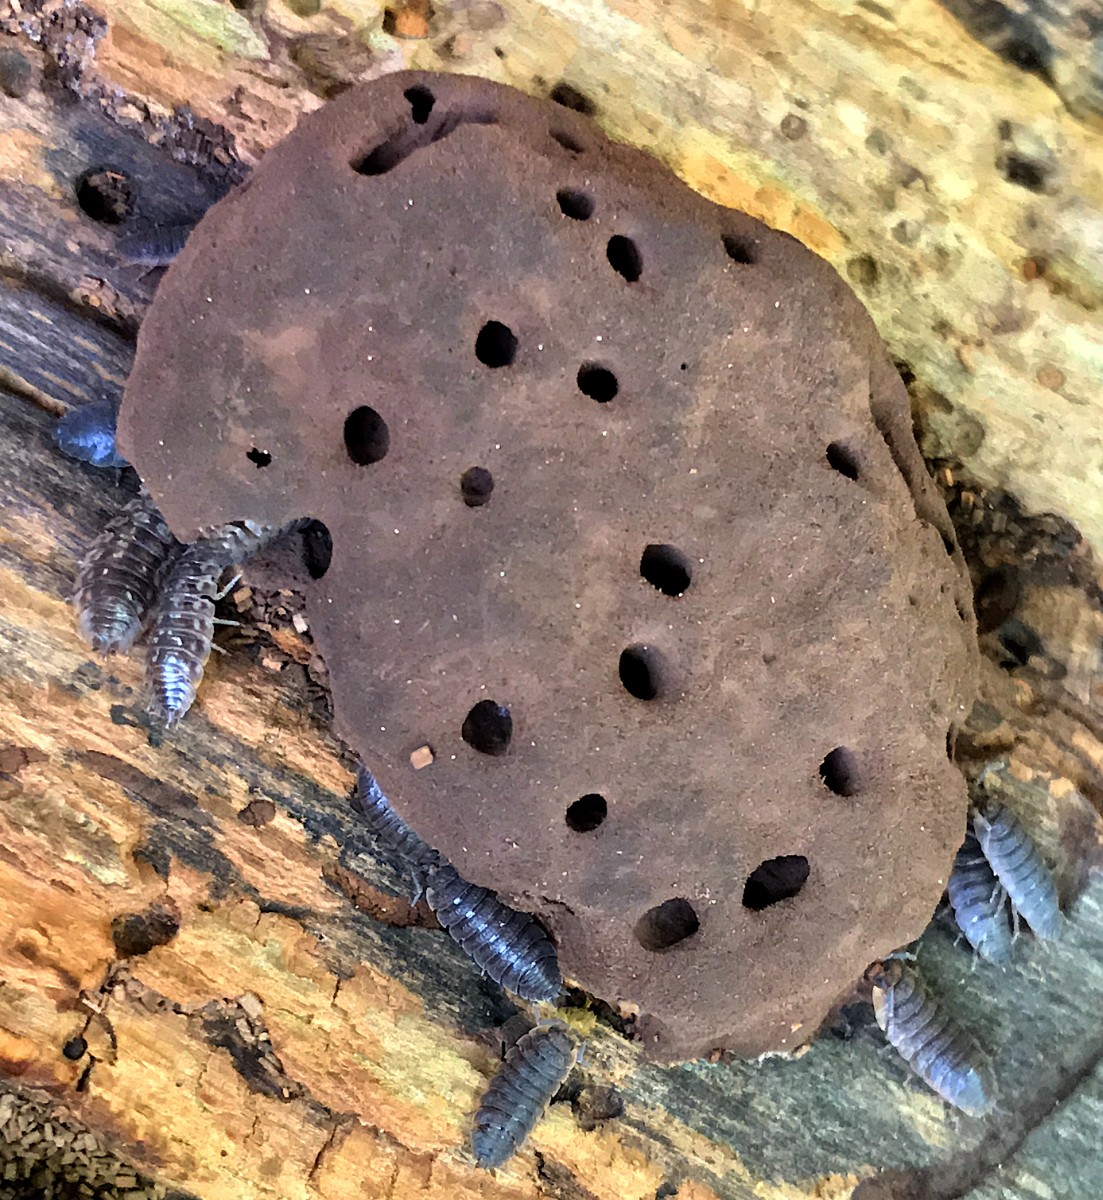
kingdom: Protozoa
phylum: Mycetozoa
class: Myxomycetes
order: Cribrariales
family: Tubiferaceae
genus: Reticularia
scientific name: Reticularia lycoperdon
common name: skinnende støvpude
